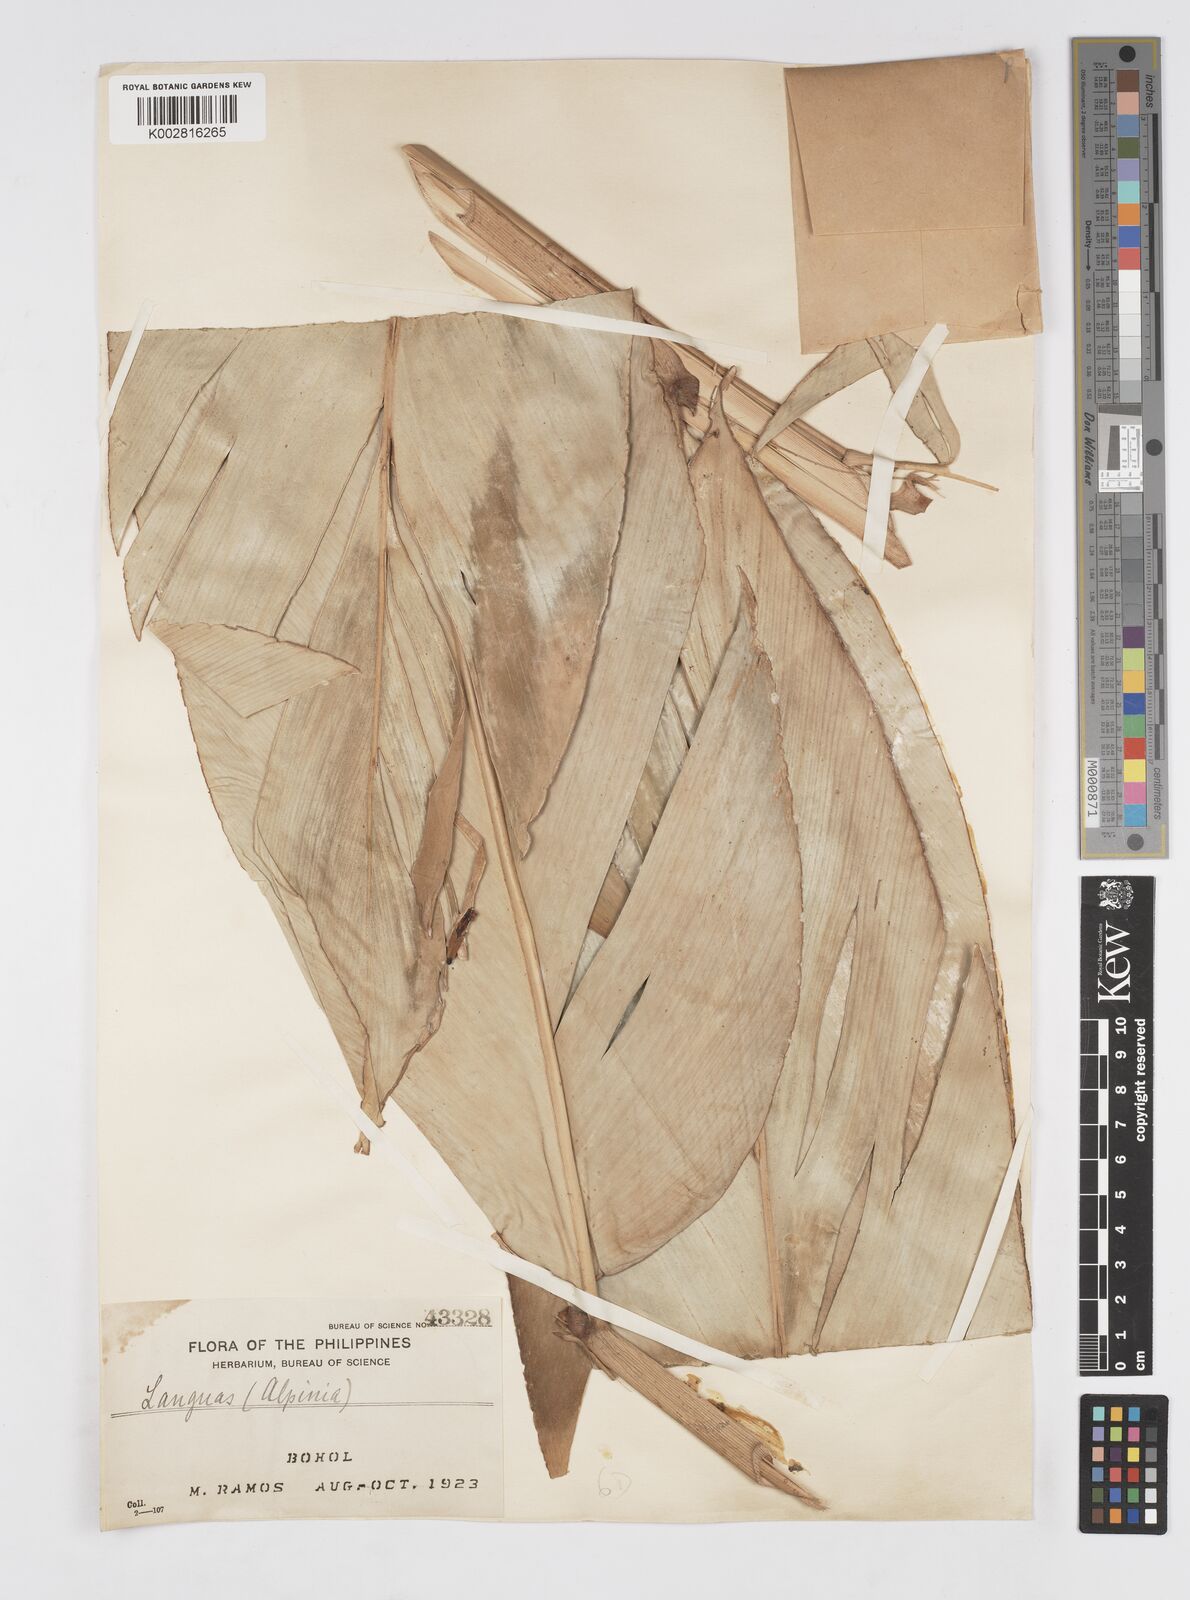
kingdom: Plantae
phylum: Tracheophyta
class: Liliopsida
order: Zingiberales
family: Zingiberaceae
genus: Alpinia
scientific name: Alpinia
